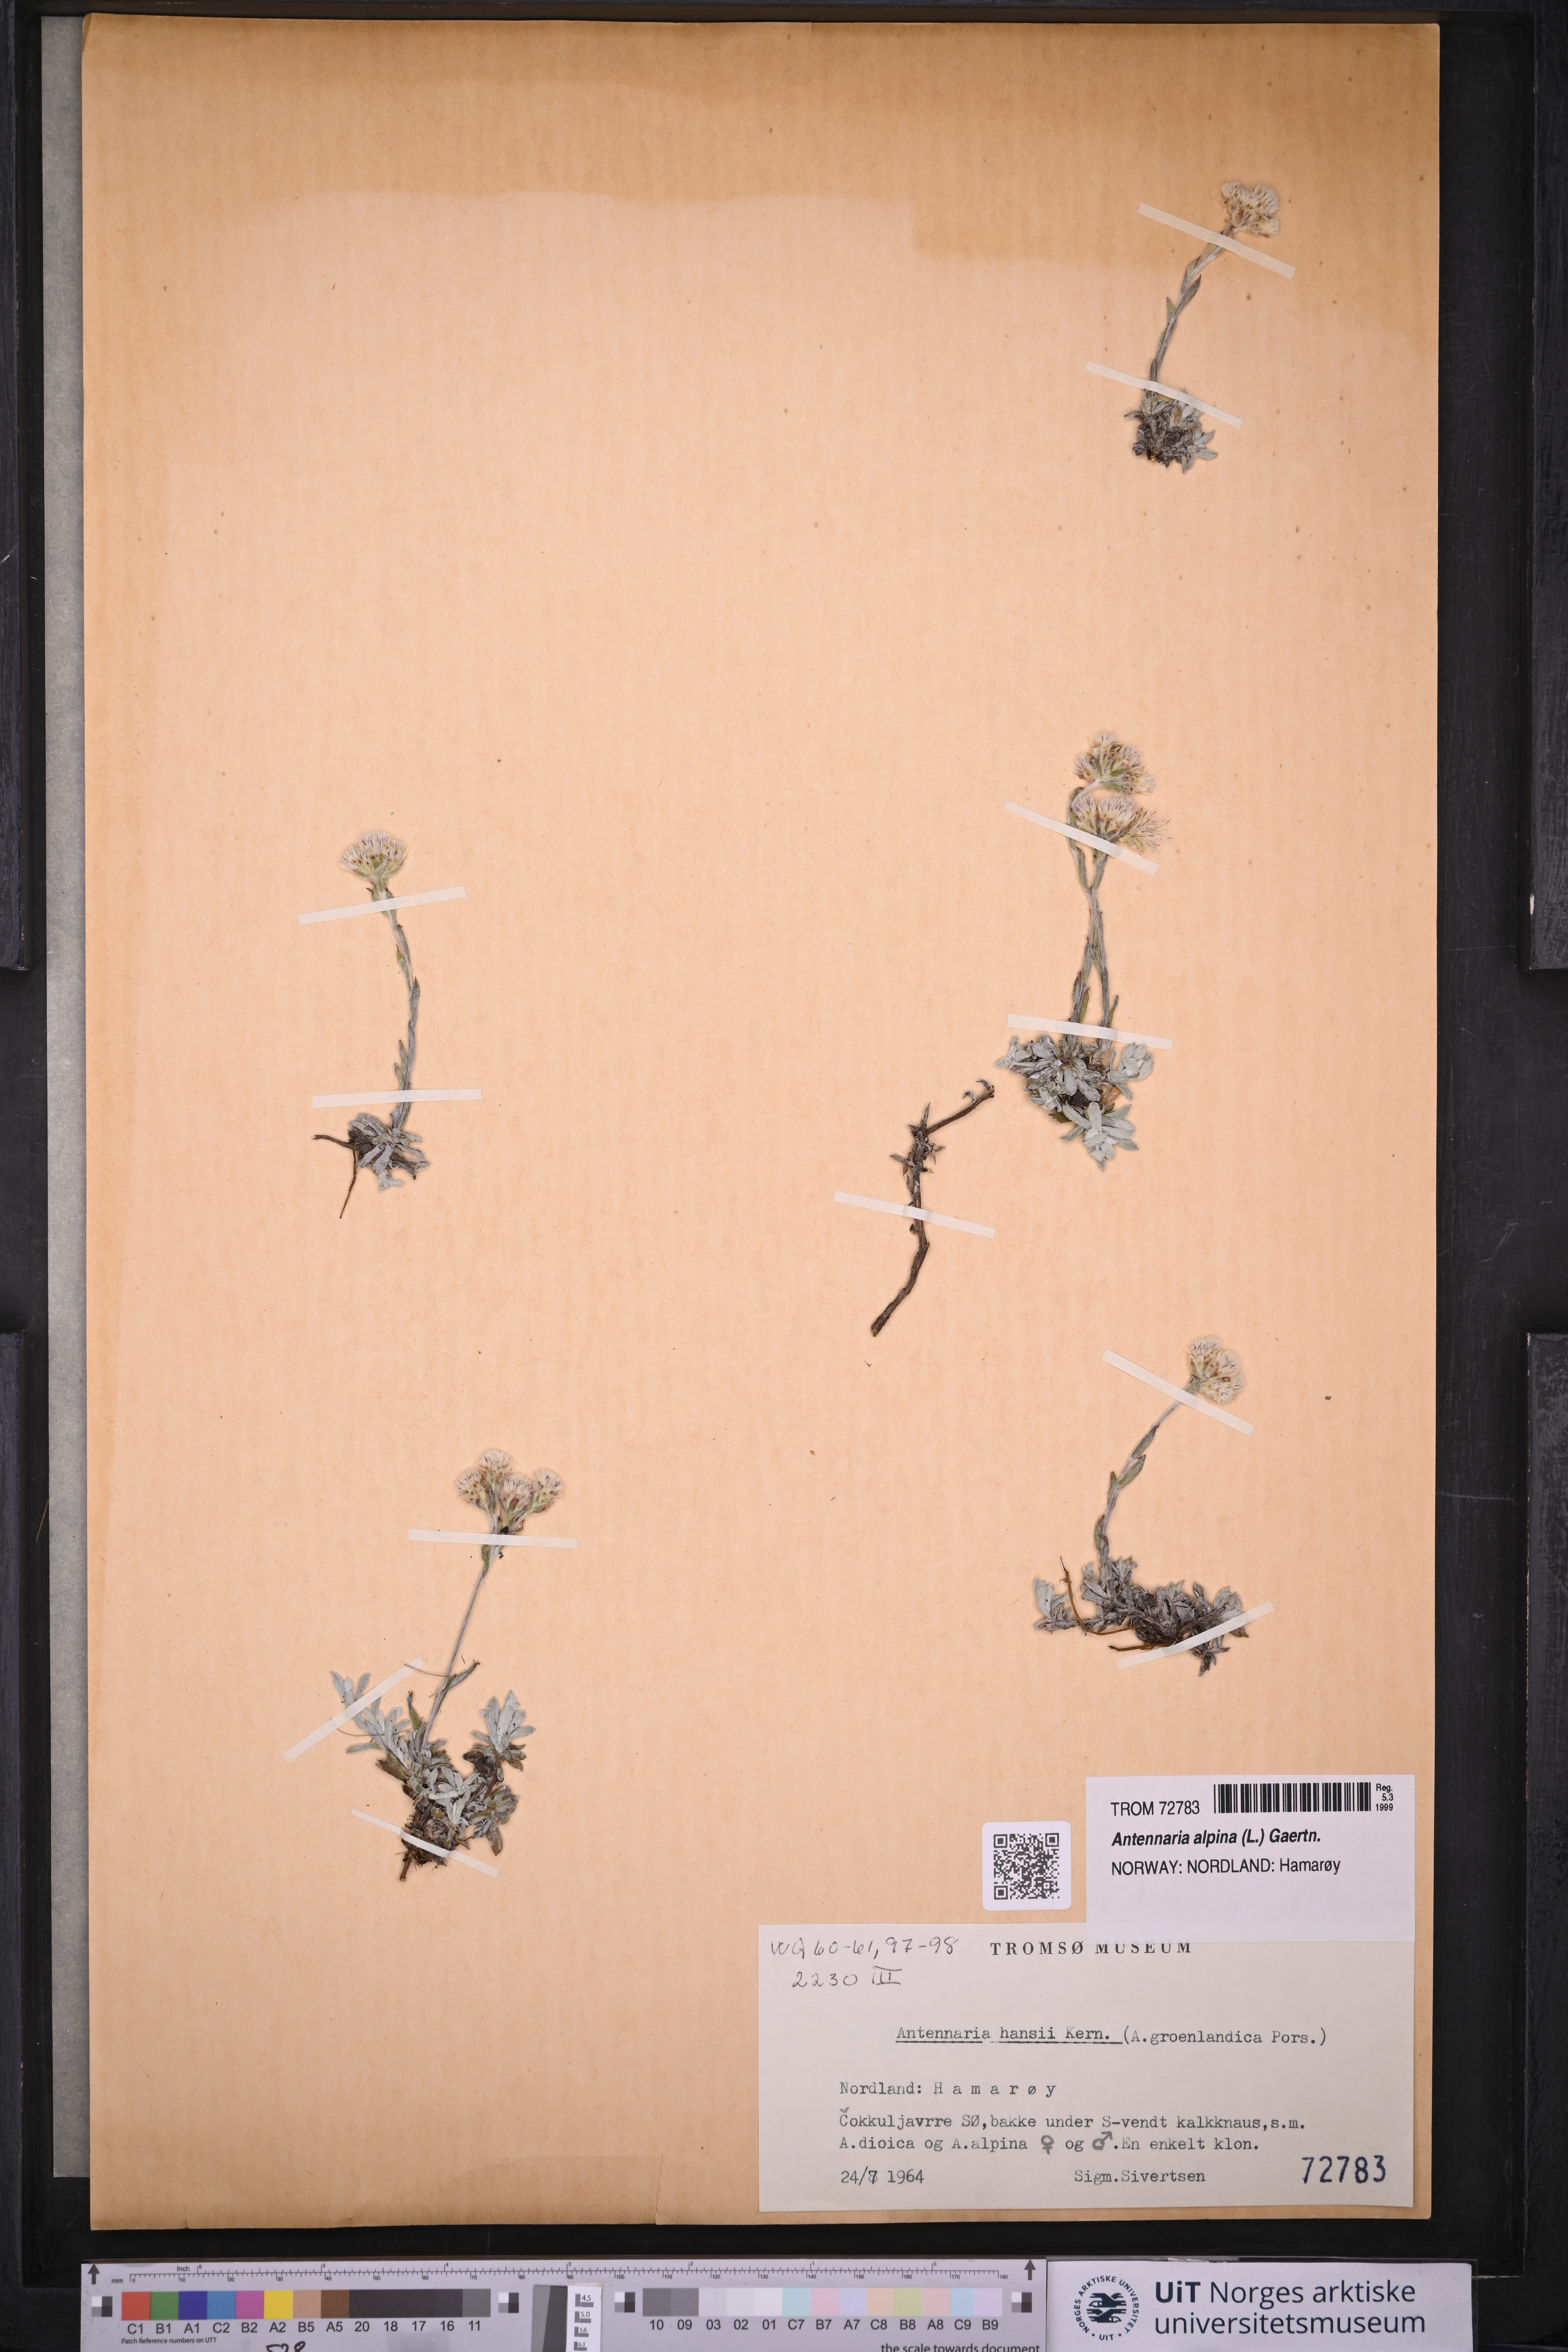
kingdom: Plantae
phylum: Tracheophyta
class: Magnoliopsida
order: Asterales
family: Asteraceae
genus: Antennaria
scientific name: Antennaria alpina
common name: Alpine pussytoes
